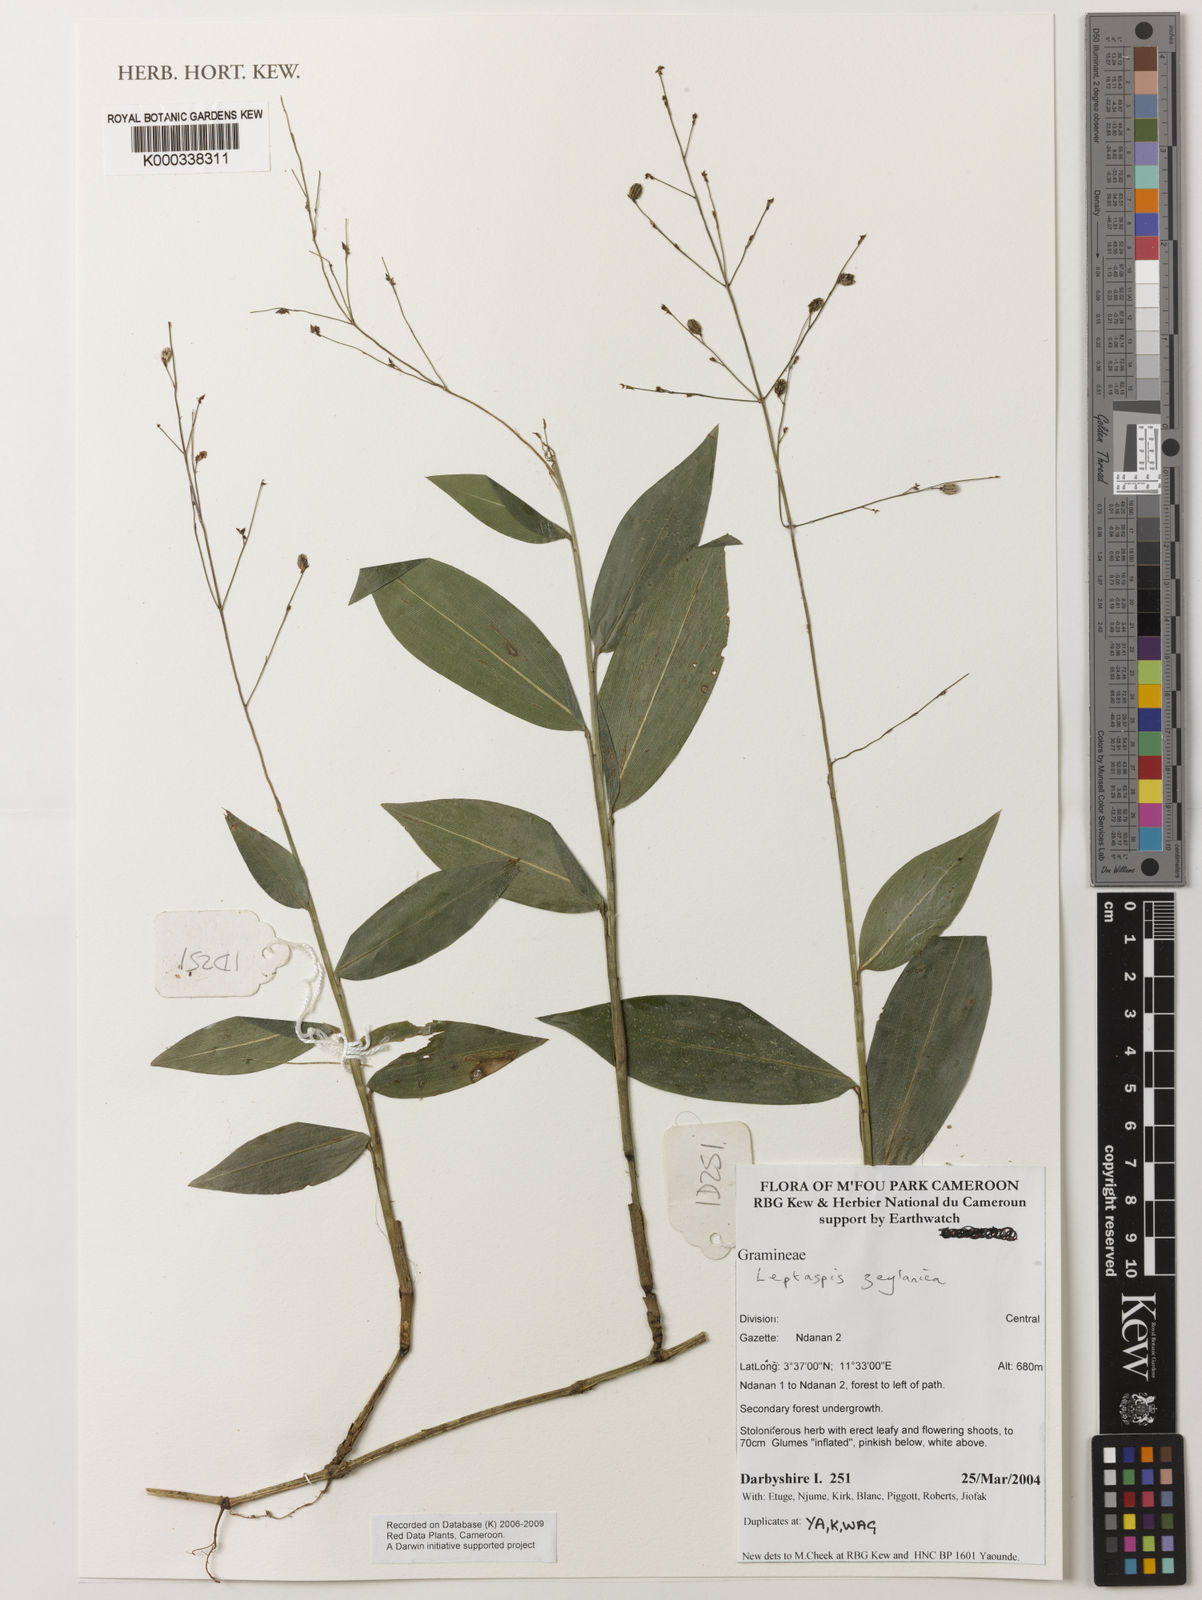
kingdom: Plantae
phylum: Tracheophyta
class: Liliopsida
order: Poales
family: Poaceae
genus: Leptaspis
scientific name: Leptaspis zeylanica
